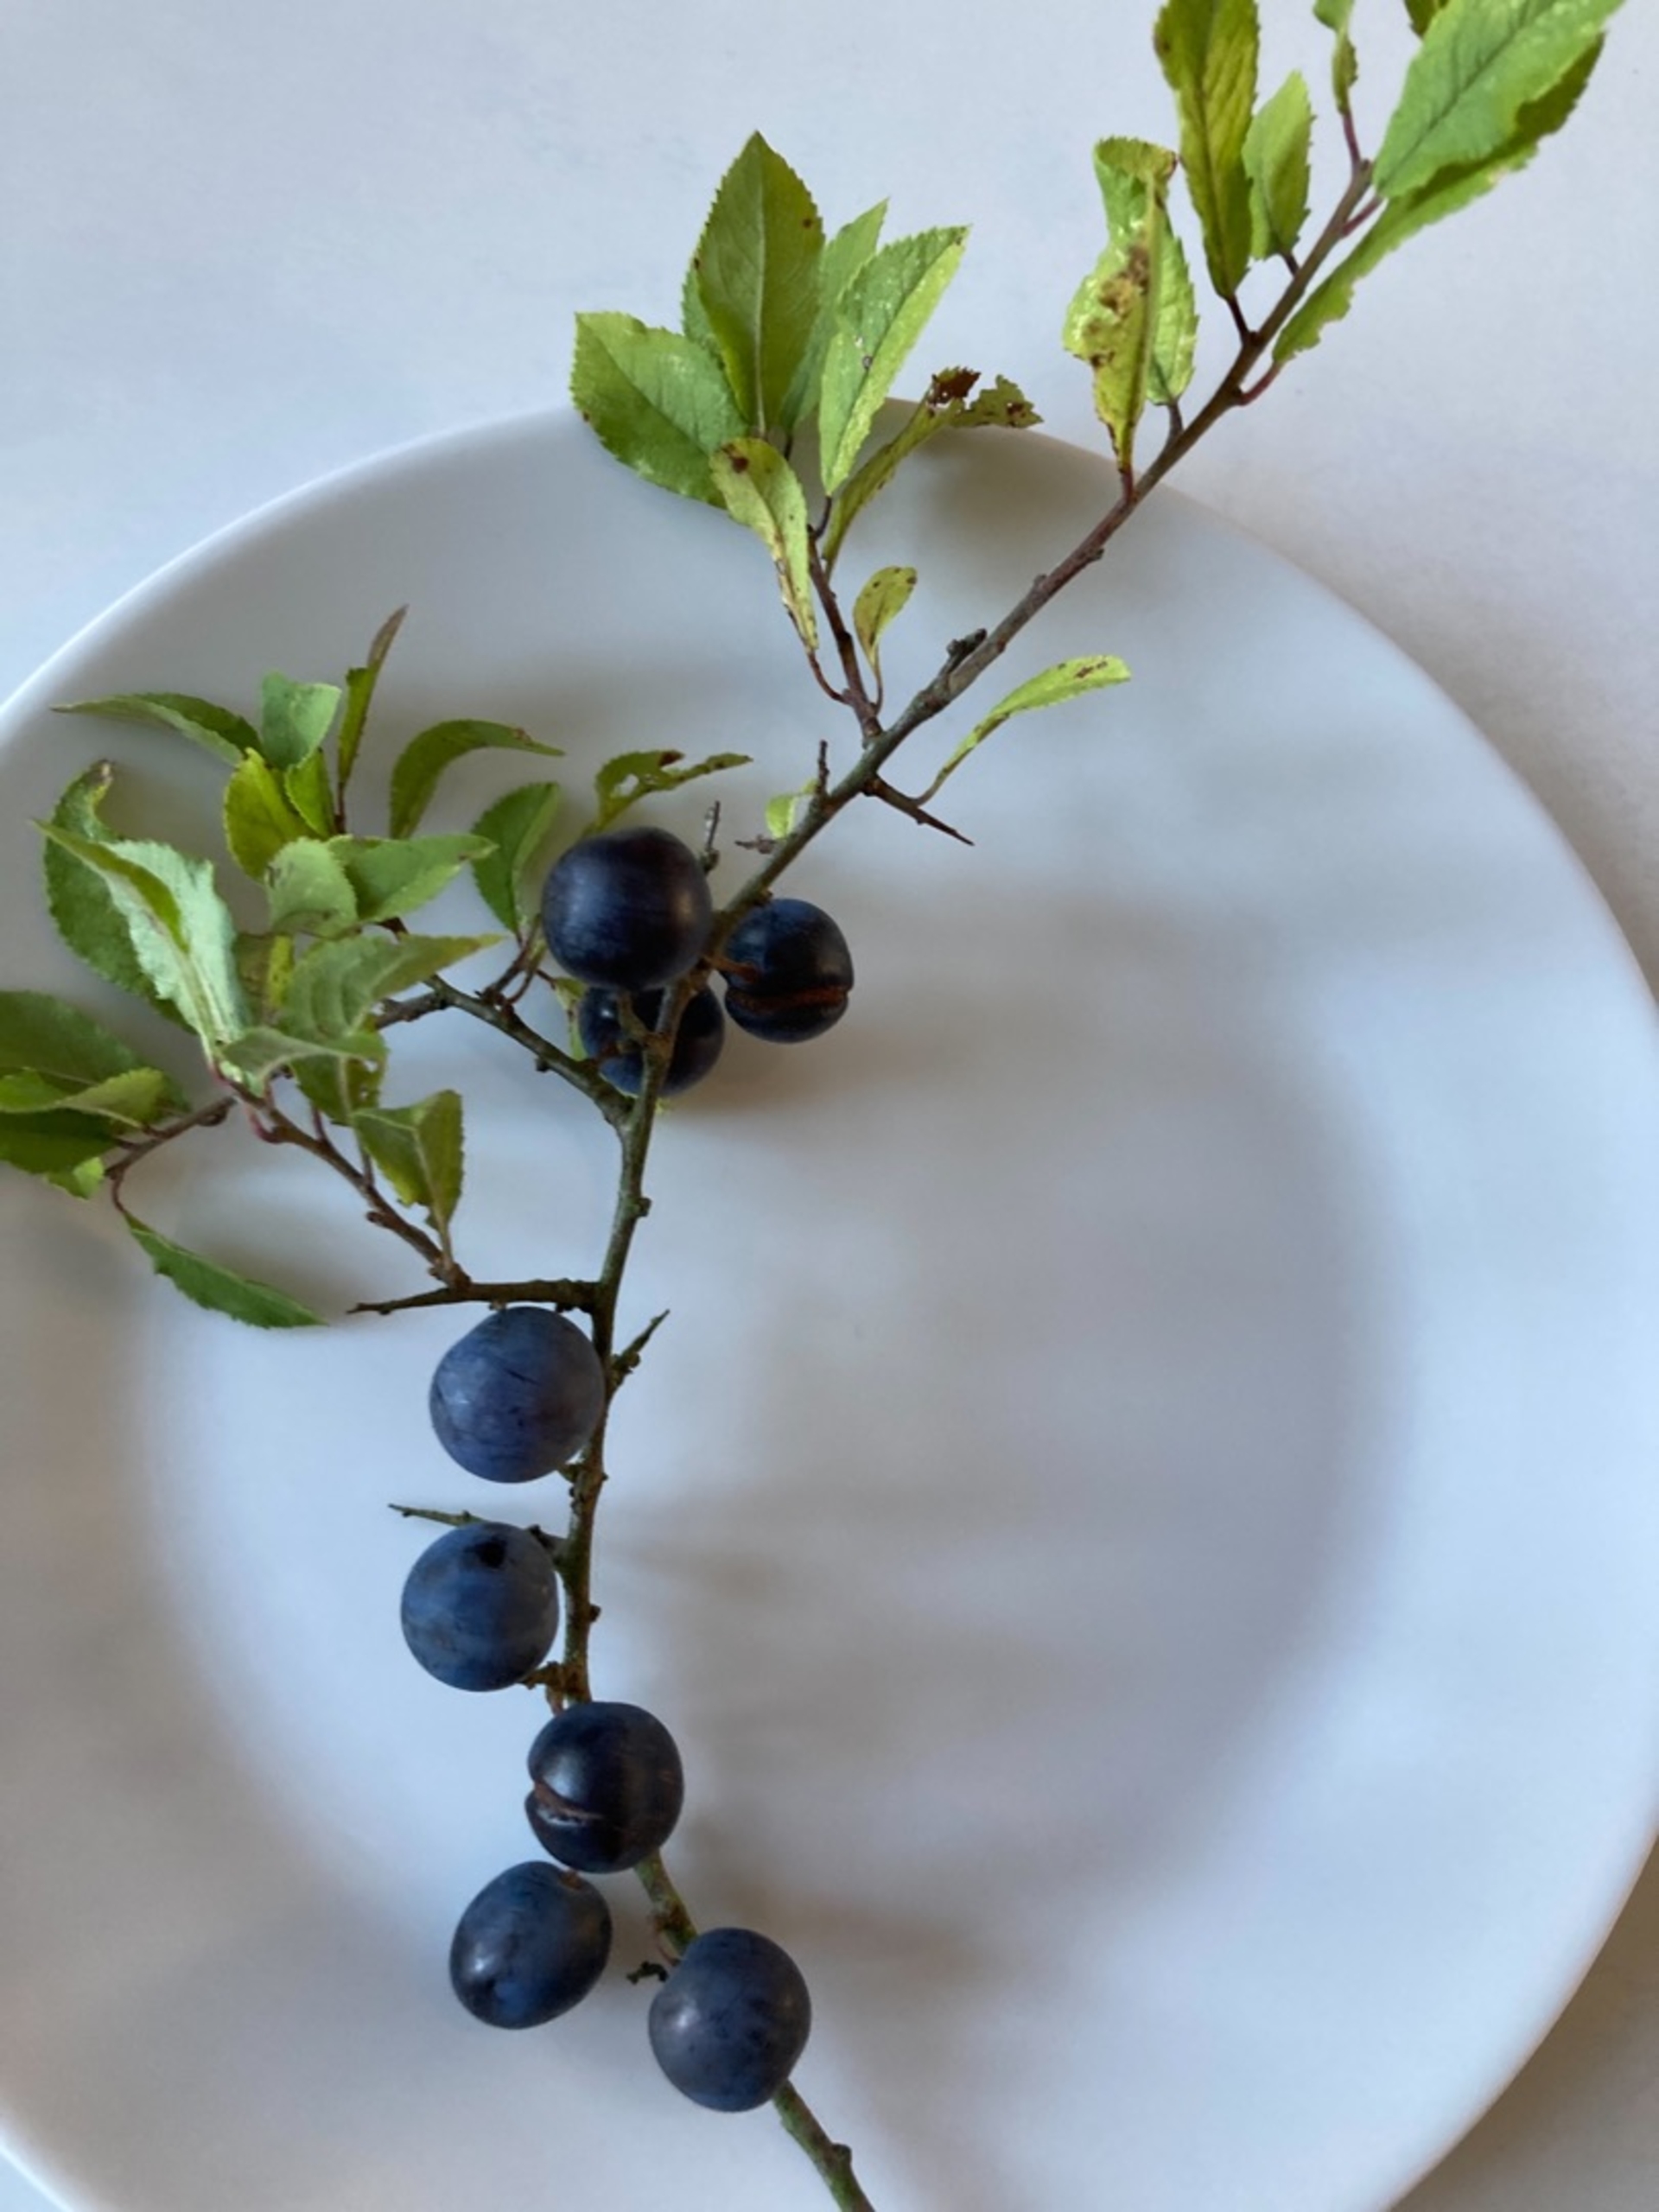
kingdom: Plantae
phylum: Tracheophyta
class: Magnoliopsida
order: Rosales
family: Rosaceae
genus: Prunus
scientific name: Prunus spinosa
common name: Slåen
